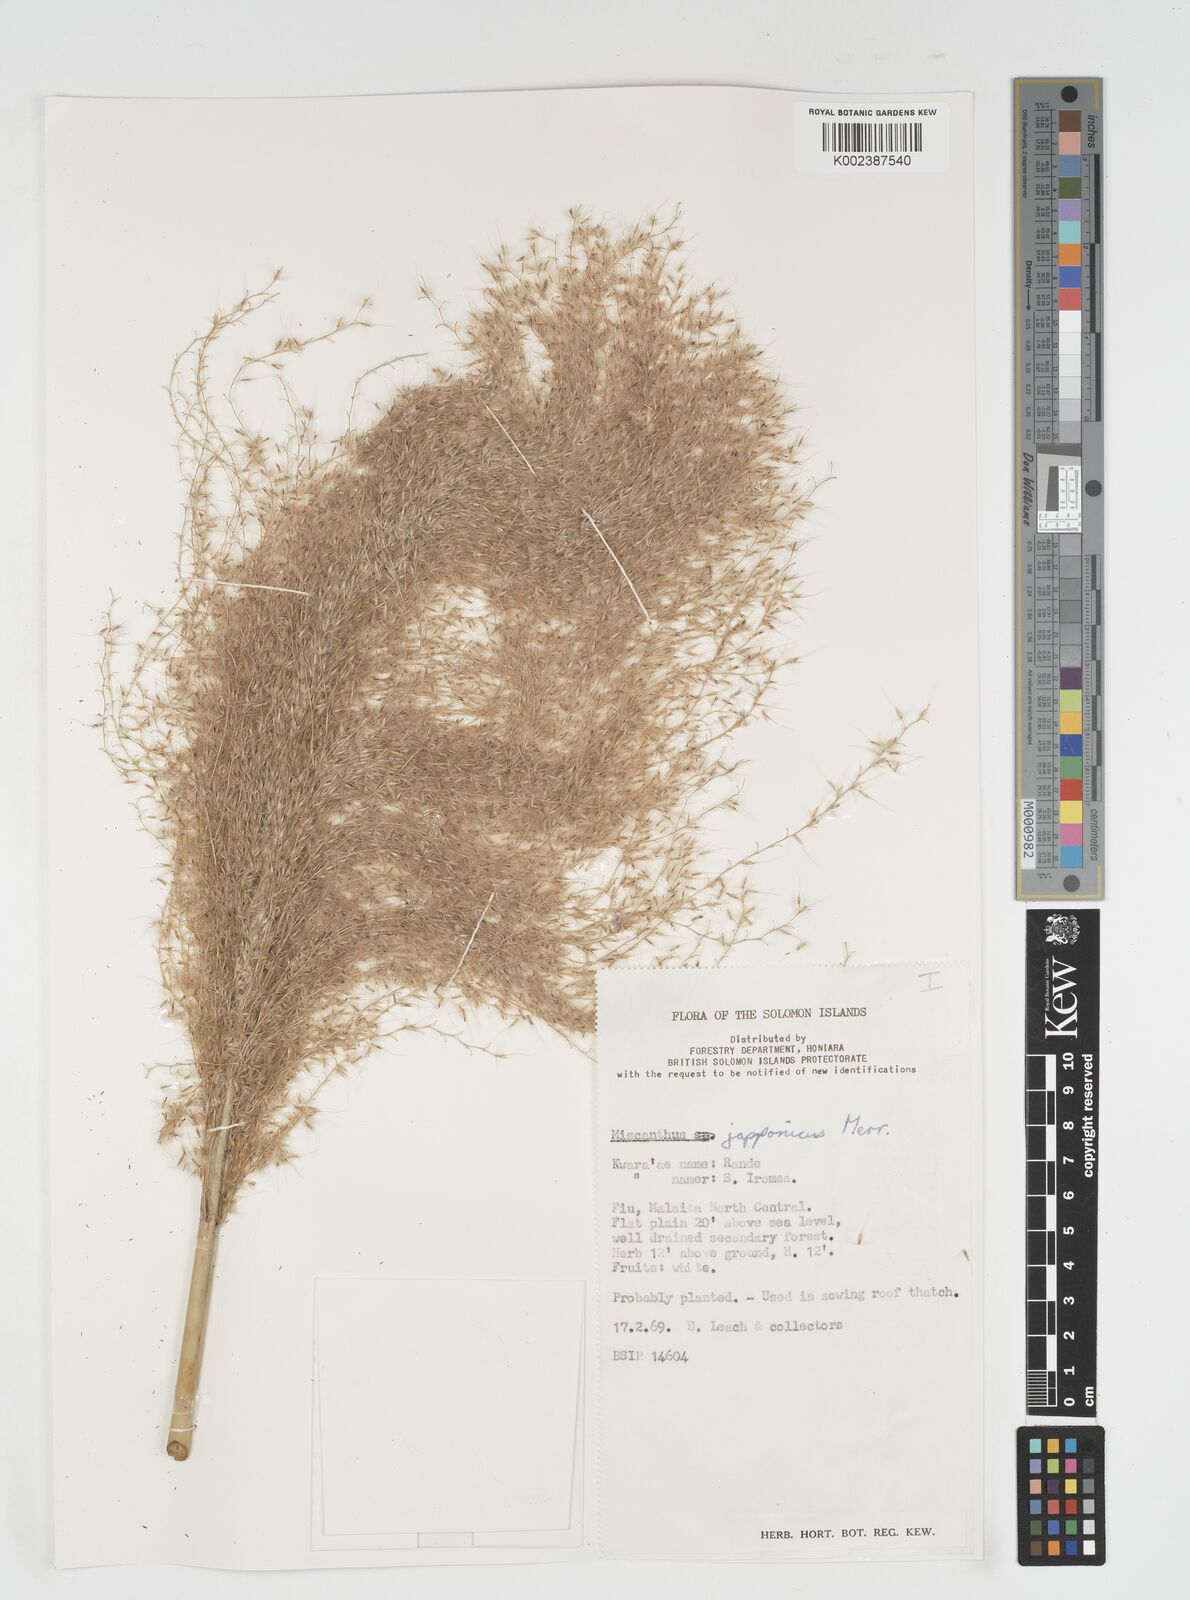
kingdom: Plantae
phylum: Tracheophyta
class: Liliopsida
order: Poales
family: Poaceae
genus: Miscanthus
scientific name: Miscanthus
